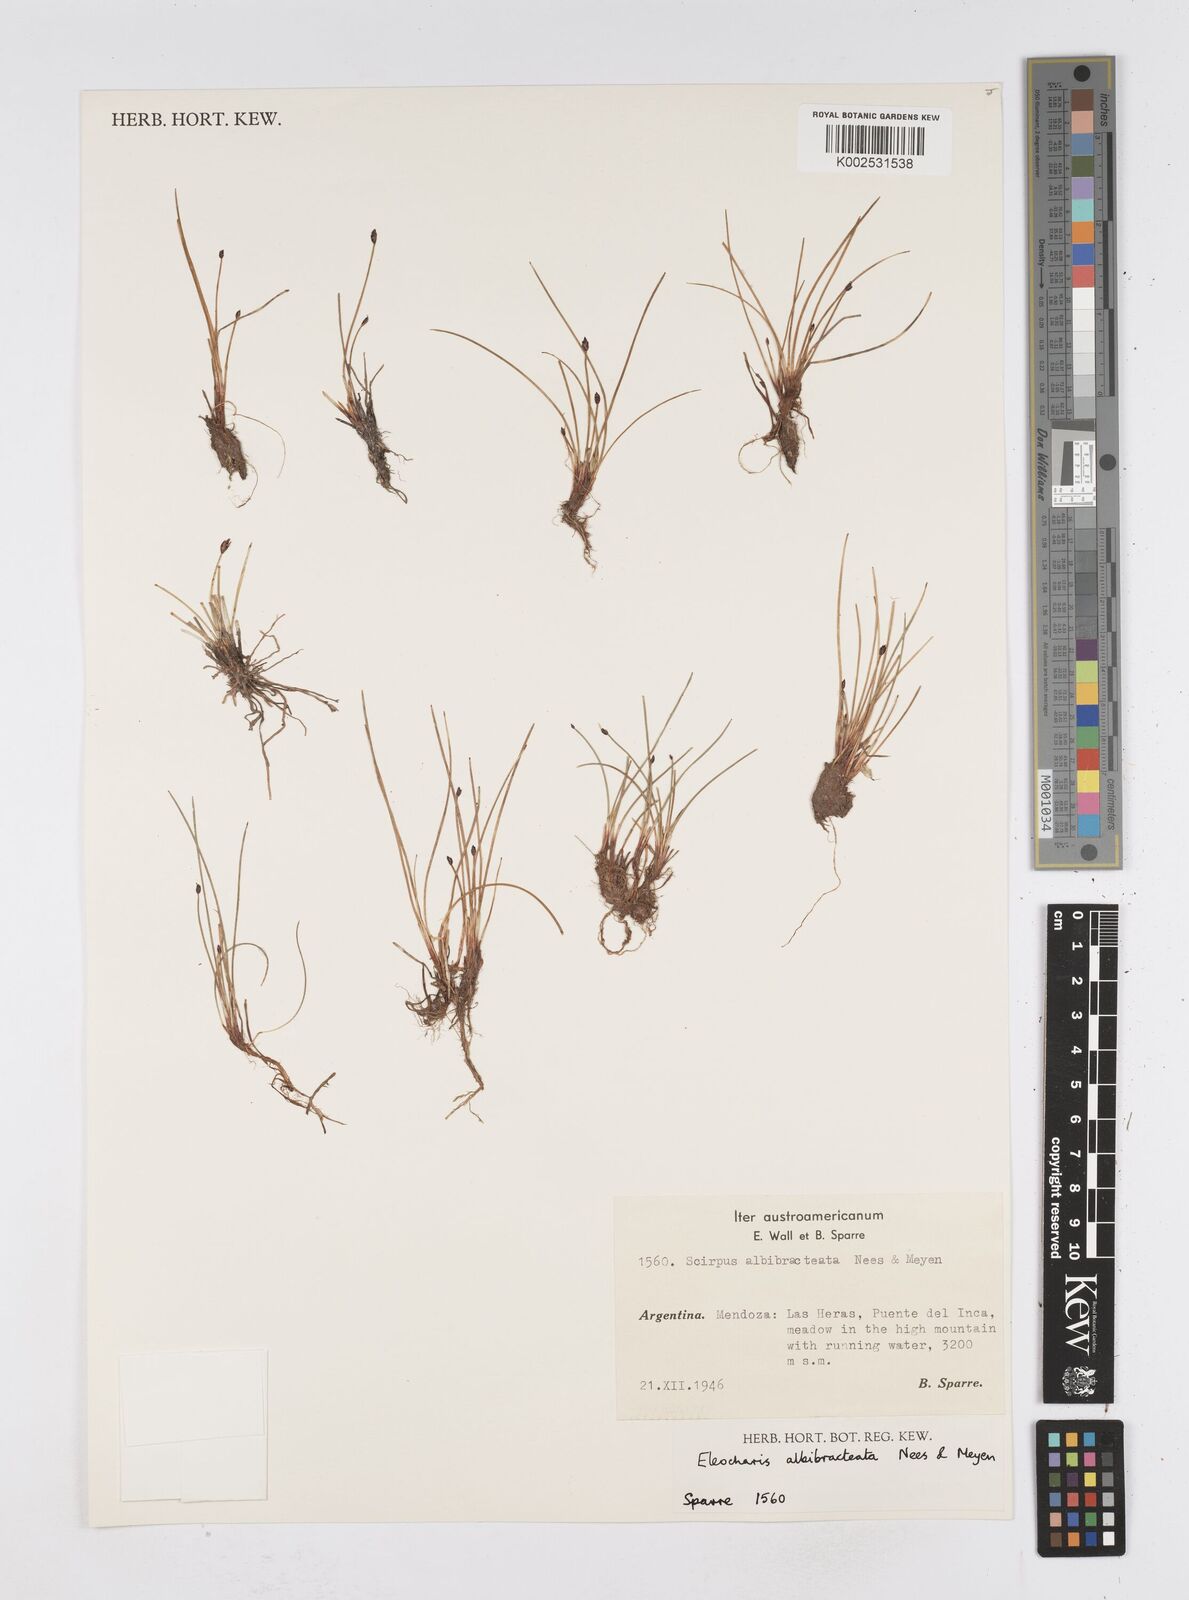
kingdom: Plantae
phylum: Tracheophyta
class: Liliopsida
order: Poales
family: Cyperaceae
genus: Eleocharis
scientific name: Eleocharis albibracteata
